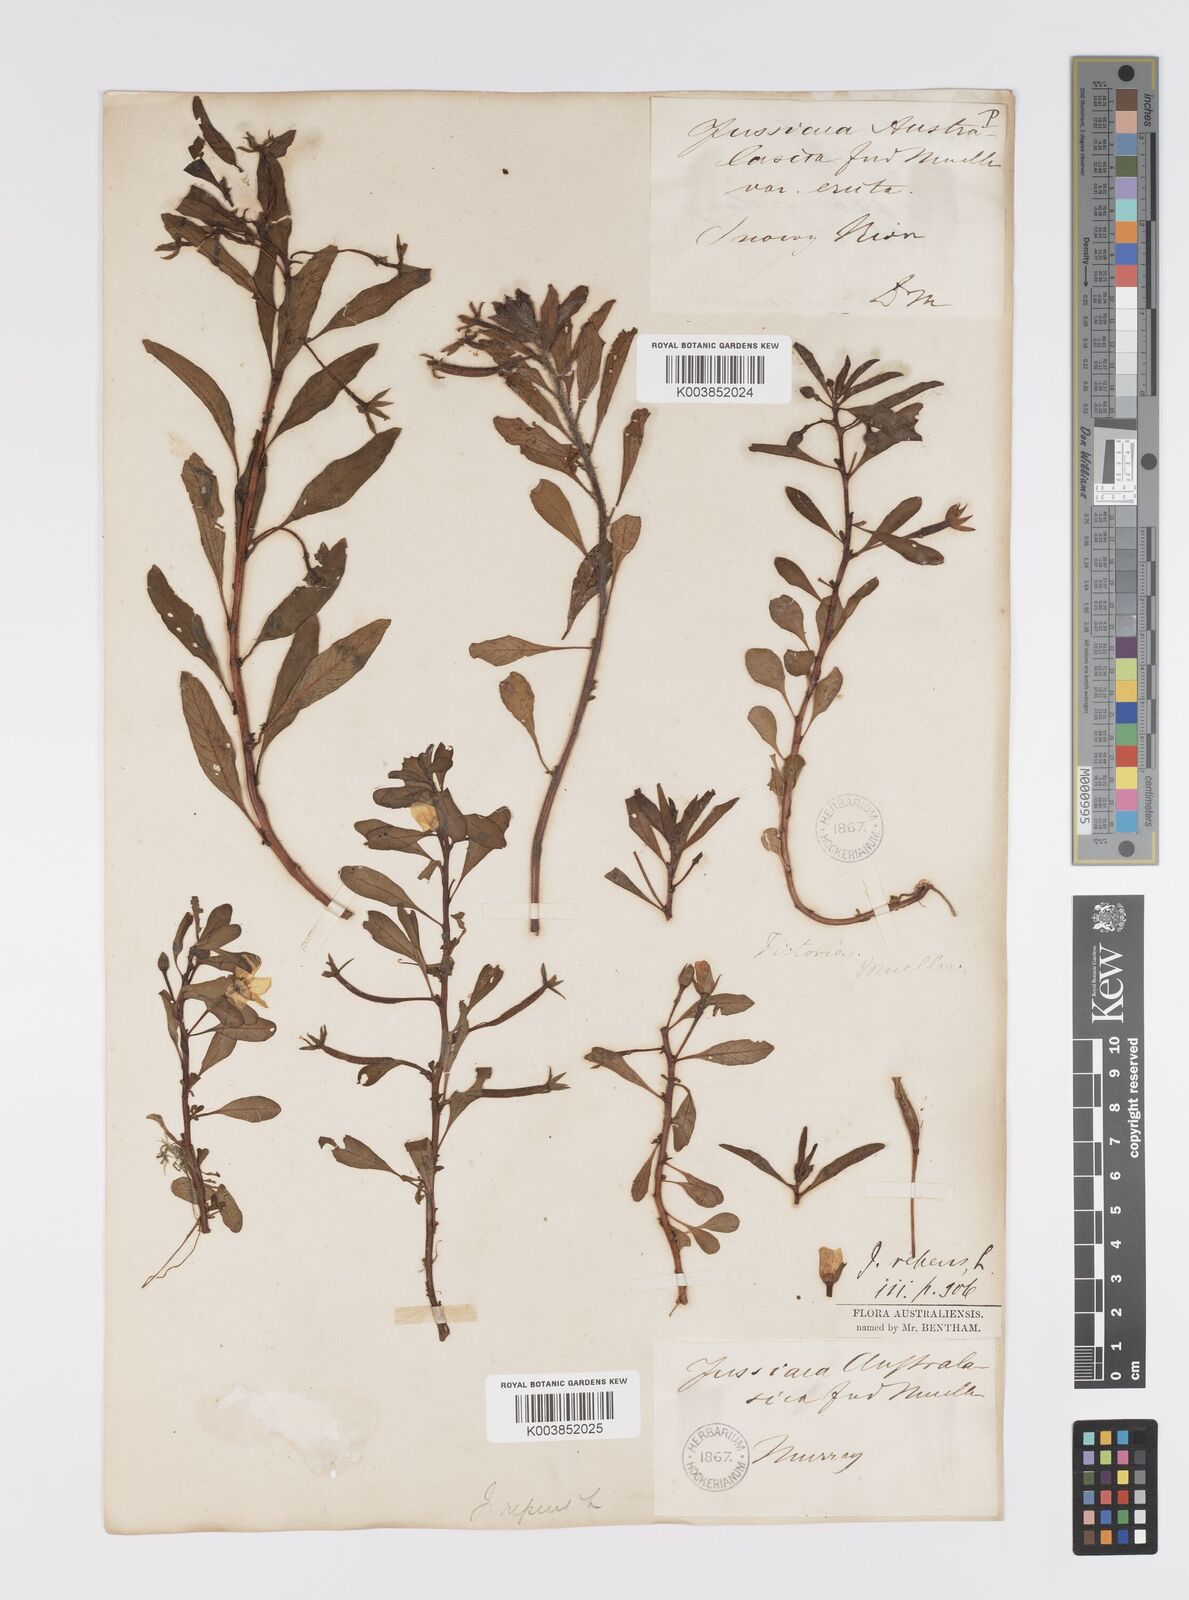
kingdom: Plantae
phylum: Tracheophyta
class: Magnoliopsida
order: Myrtales
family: Onagraceae
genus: Ludwigia
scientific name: Ludwigia peploides
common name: Floating primrose-willow
